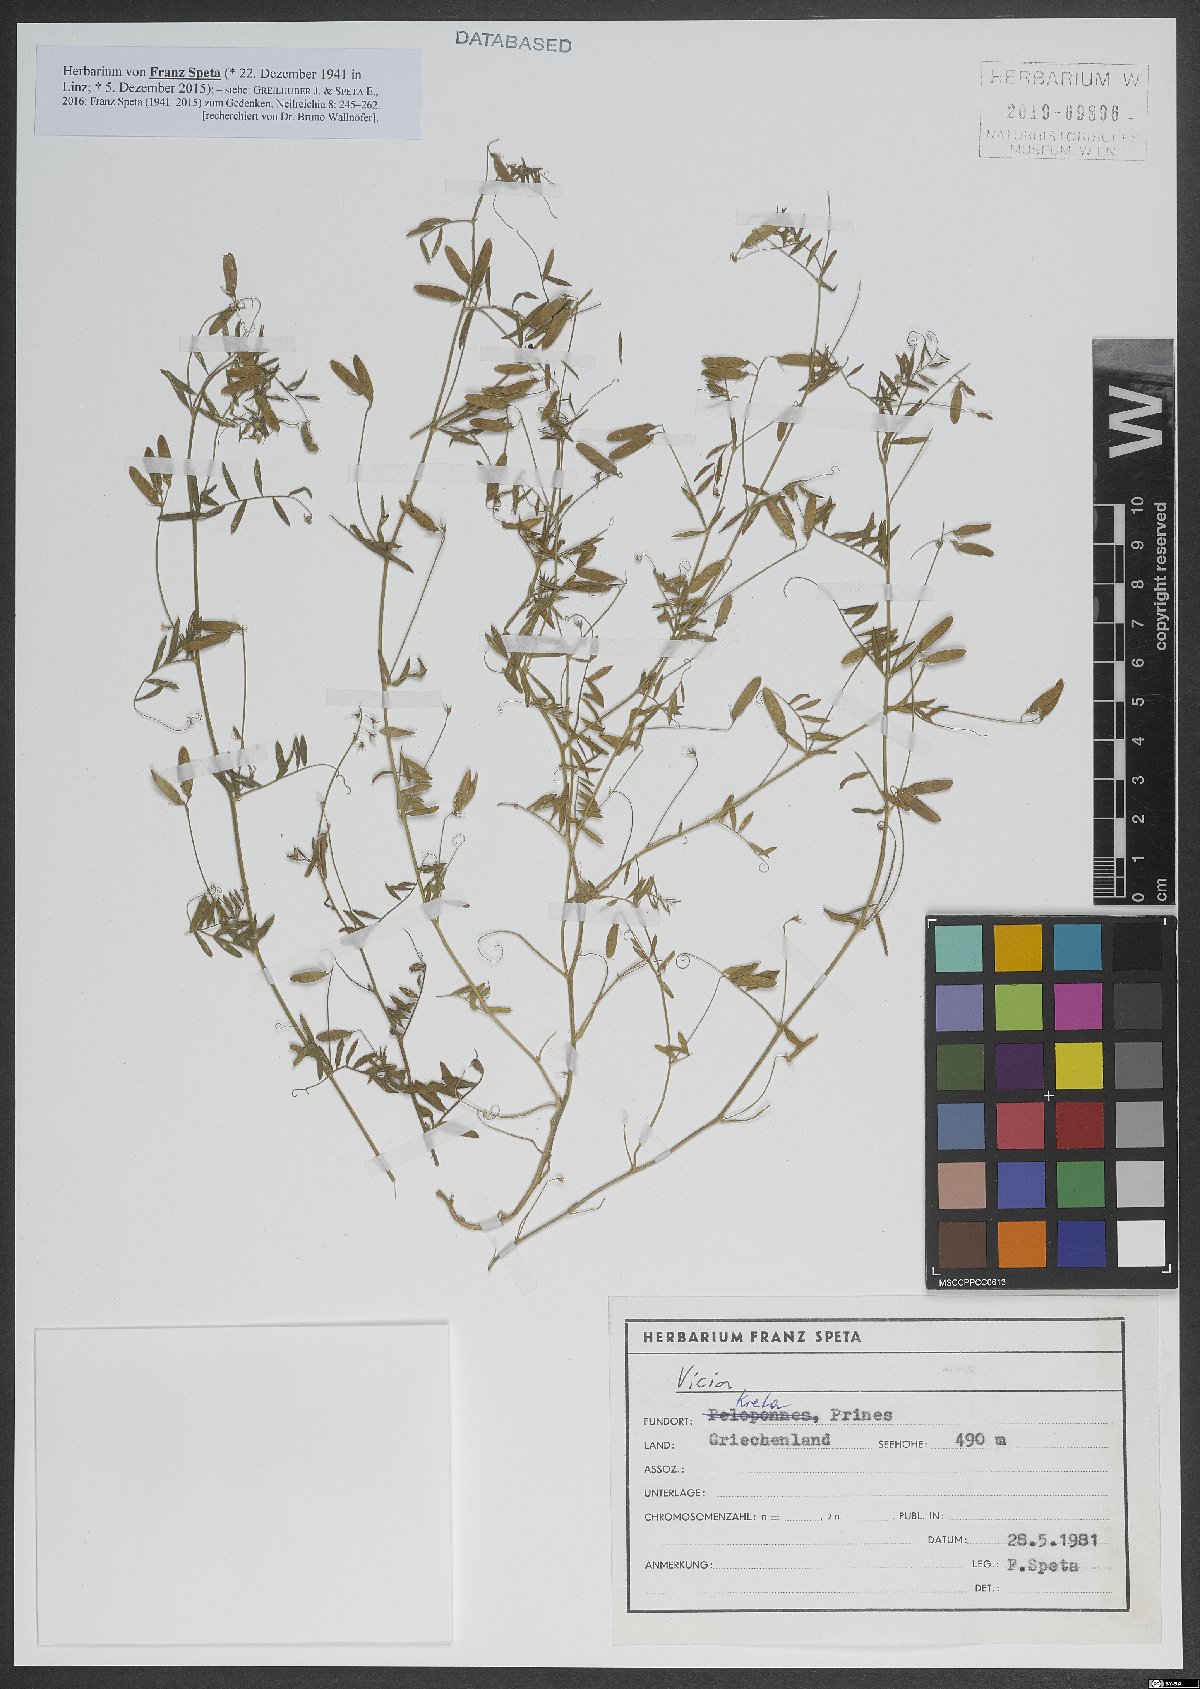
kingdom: Plantae
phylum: Tracheophyta
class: Magnoliopsida
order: Fabales
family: Fabaceae
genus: Vicia
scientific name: Vicia
